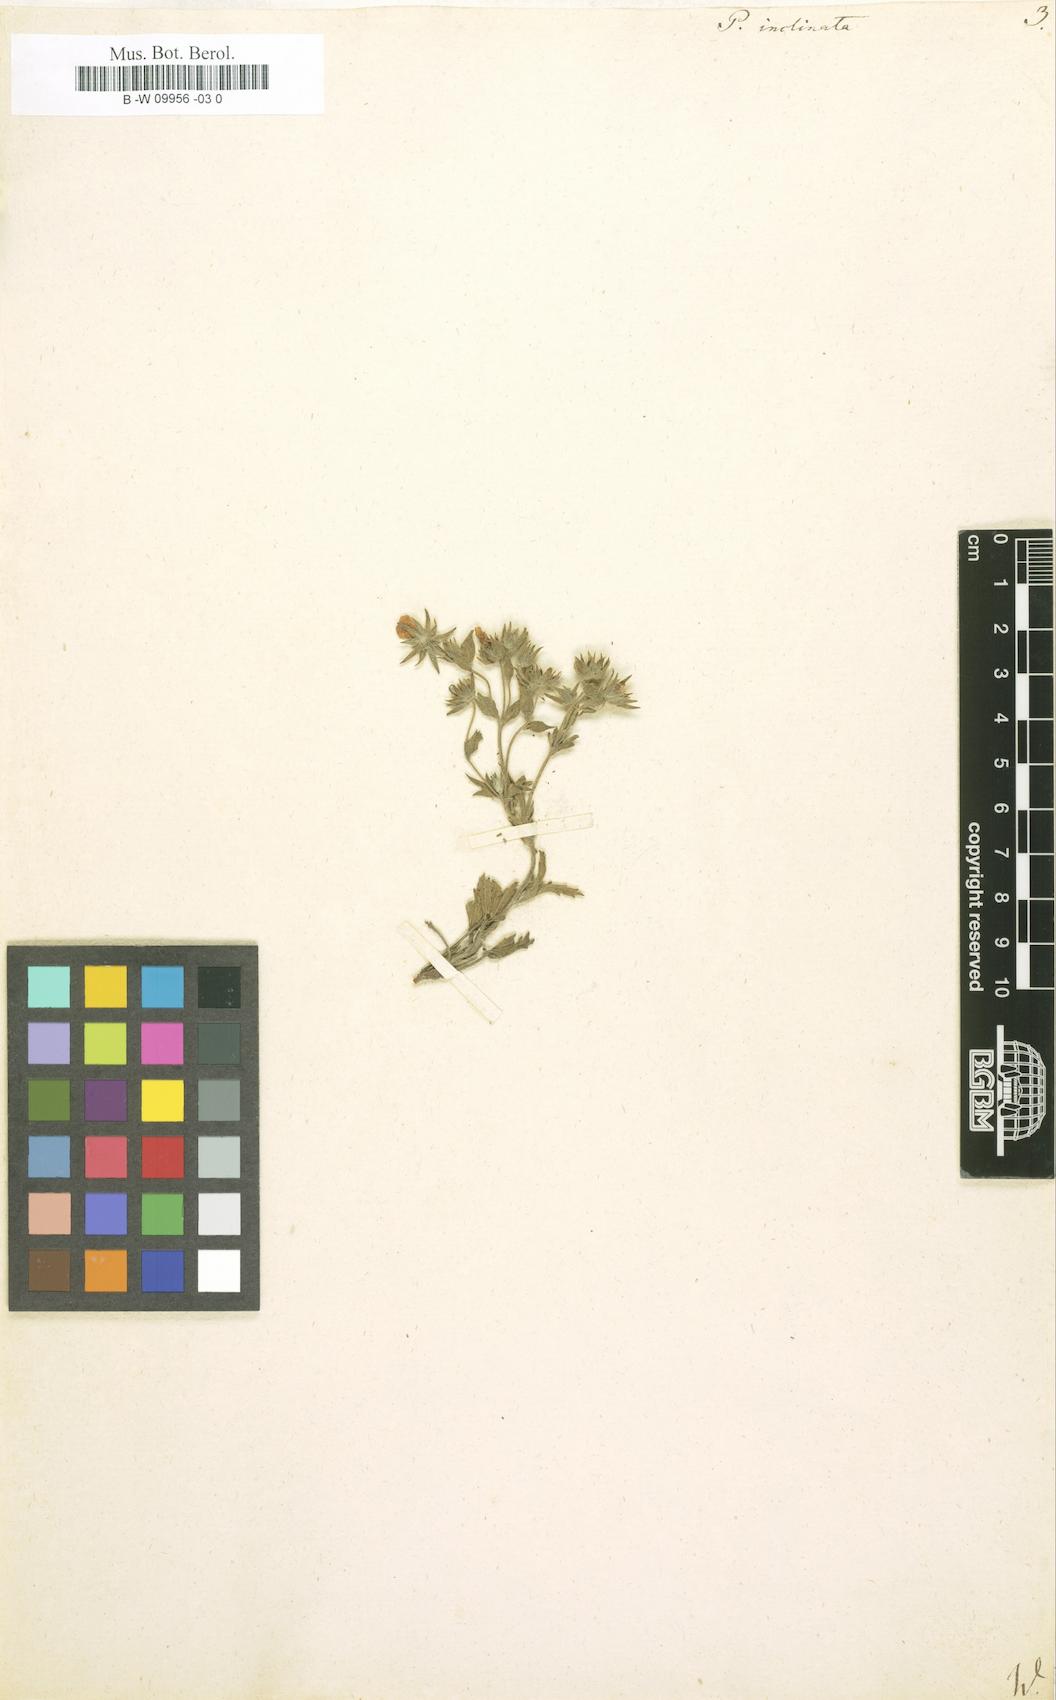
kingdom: Plantae
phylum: Tracheophyta
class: Magnoliopsida
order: Rosales
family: Rosaceae
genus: Potentilla
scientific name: Potentilla inclinata
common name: Grey cinquefoil
